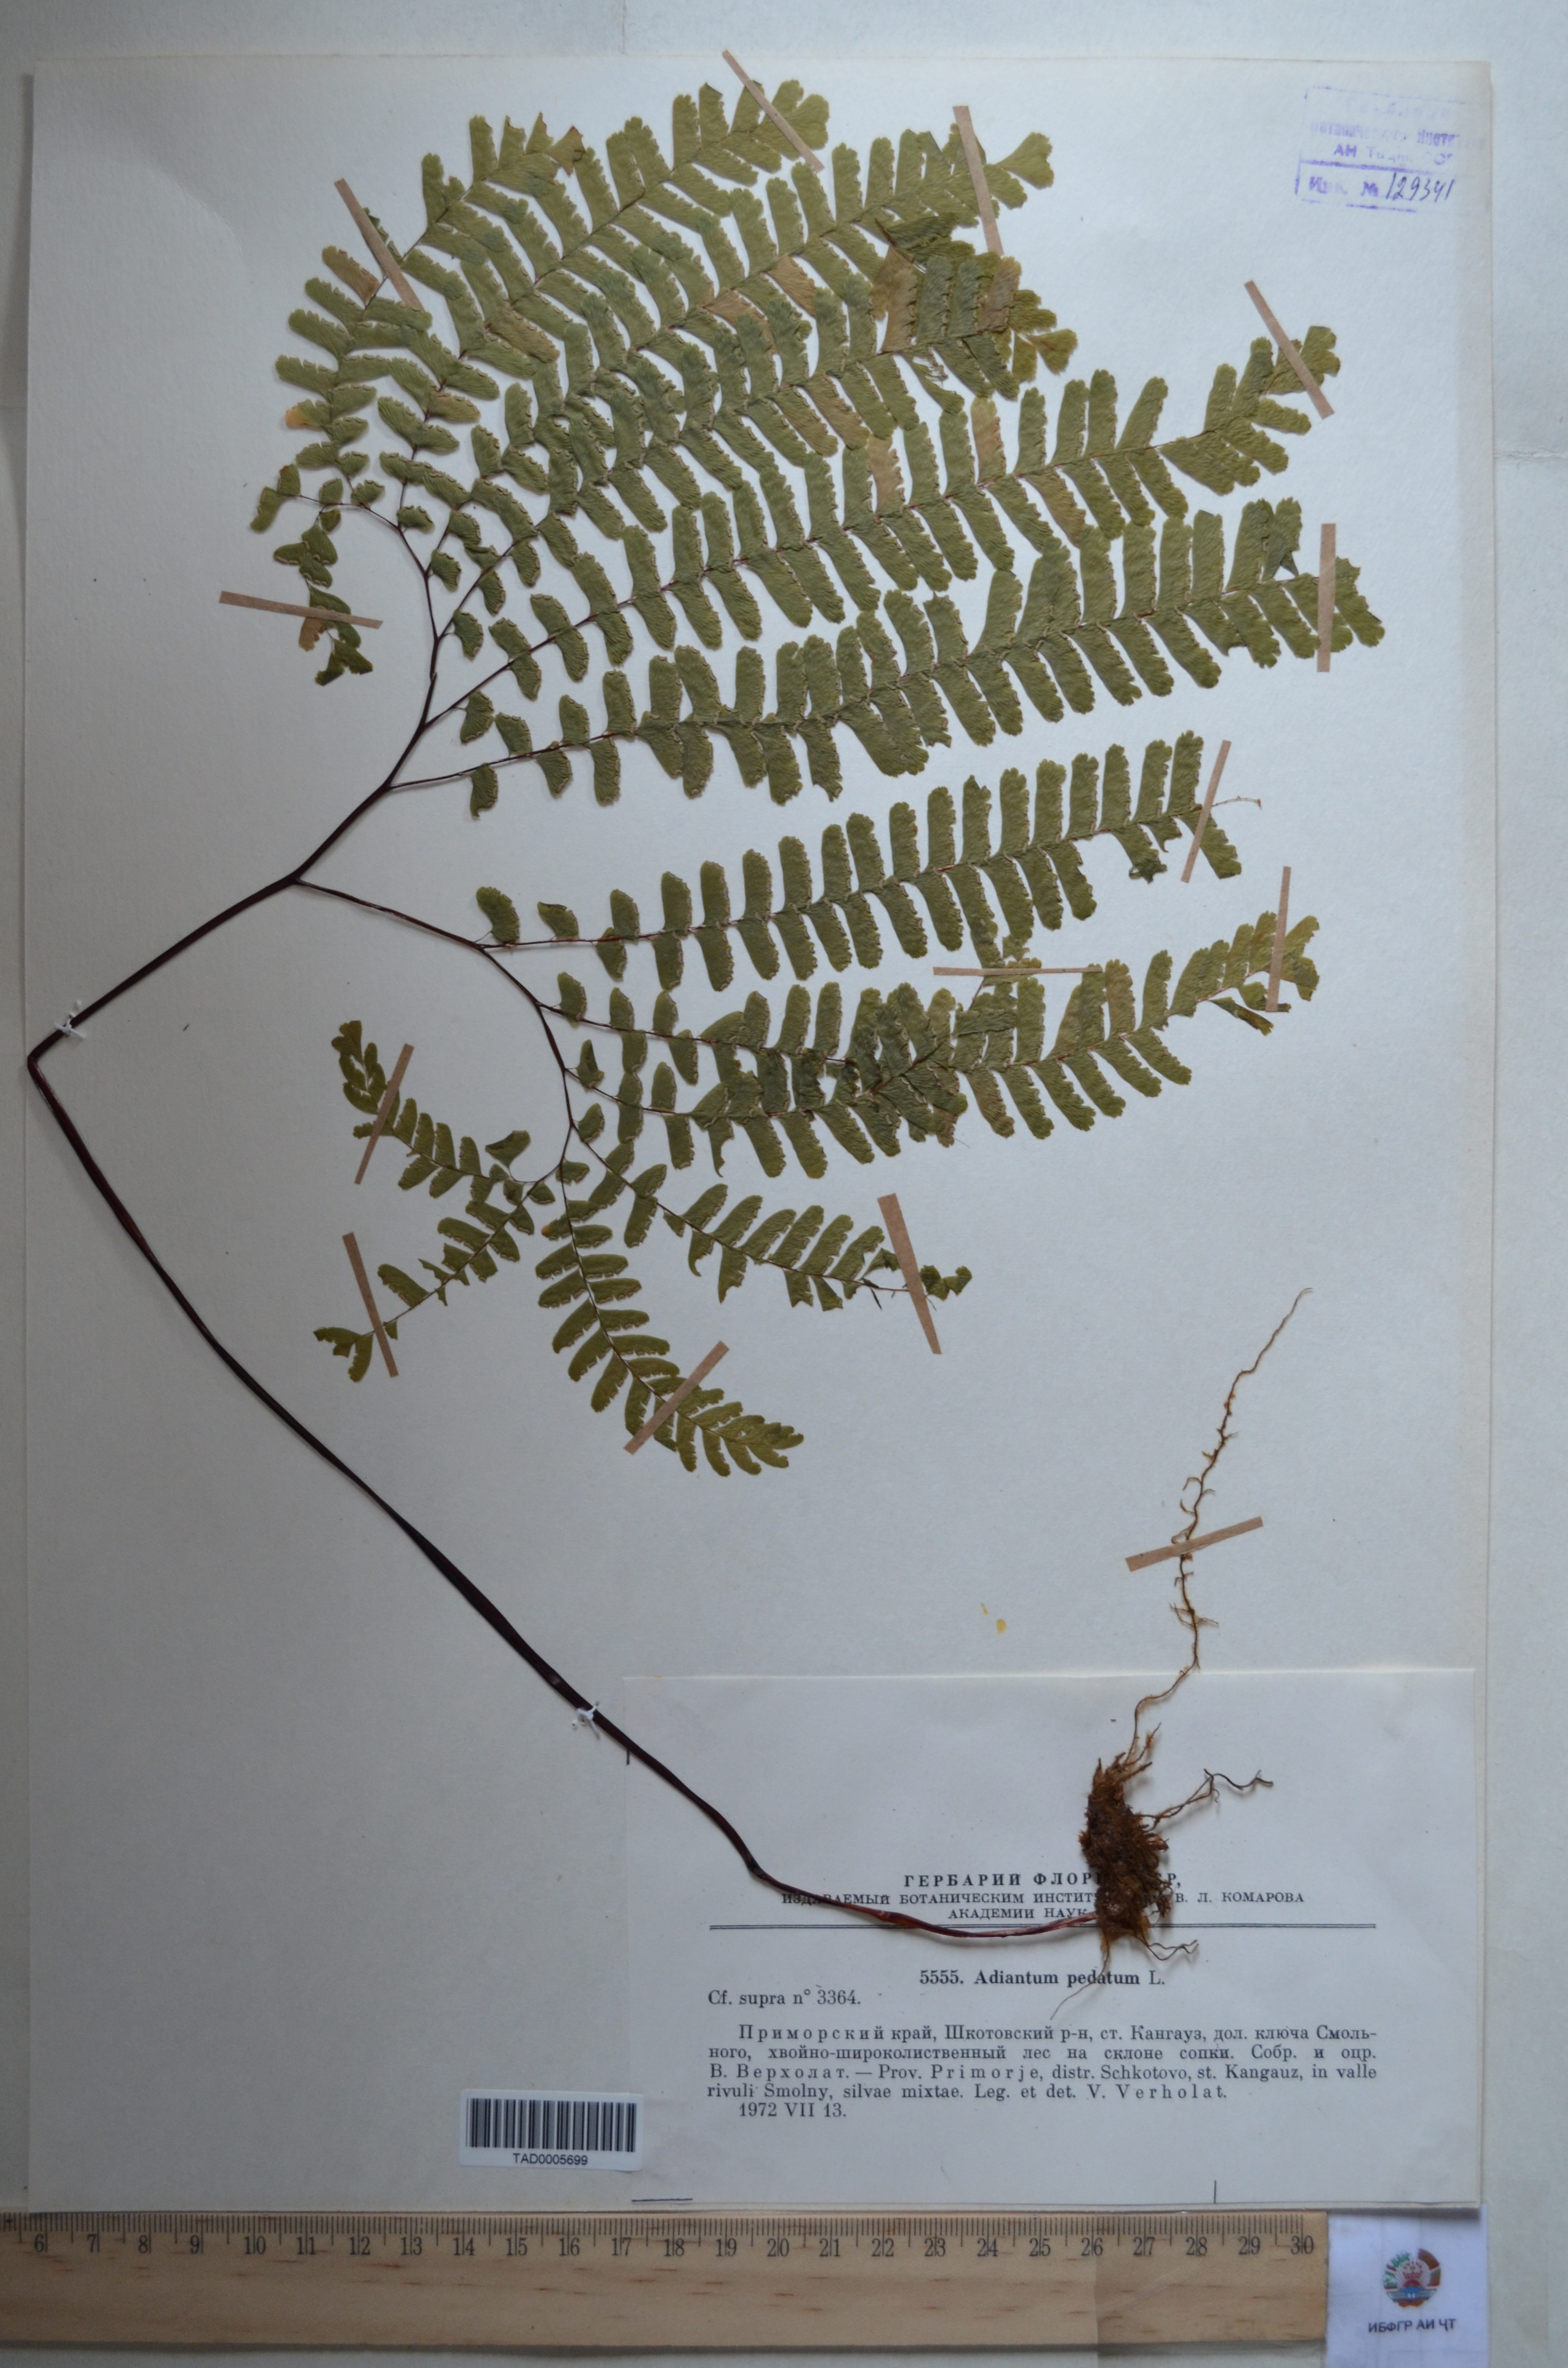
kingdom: Plantae
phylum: Tracheophyta
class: Polypodiopsida
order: Polypodiales
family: Pteridaceae
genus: Adiantum
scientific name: Adiantum pedatum
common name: Five-finger fern
